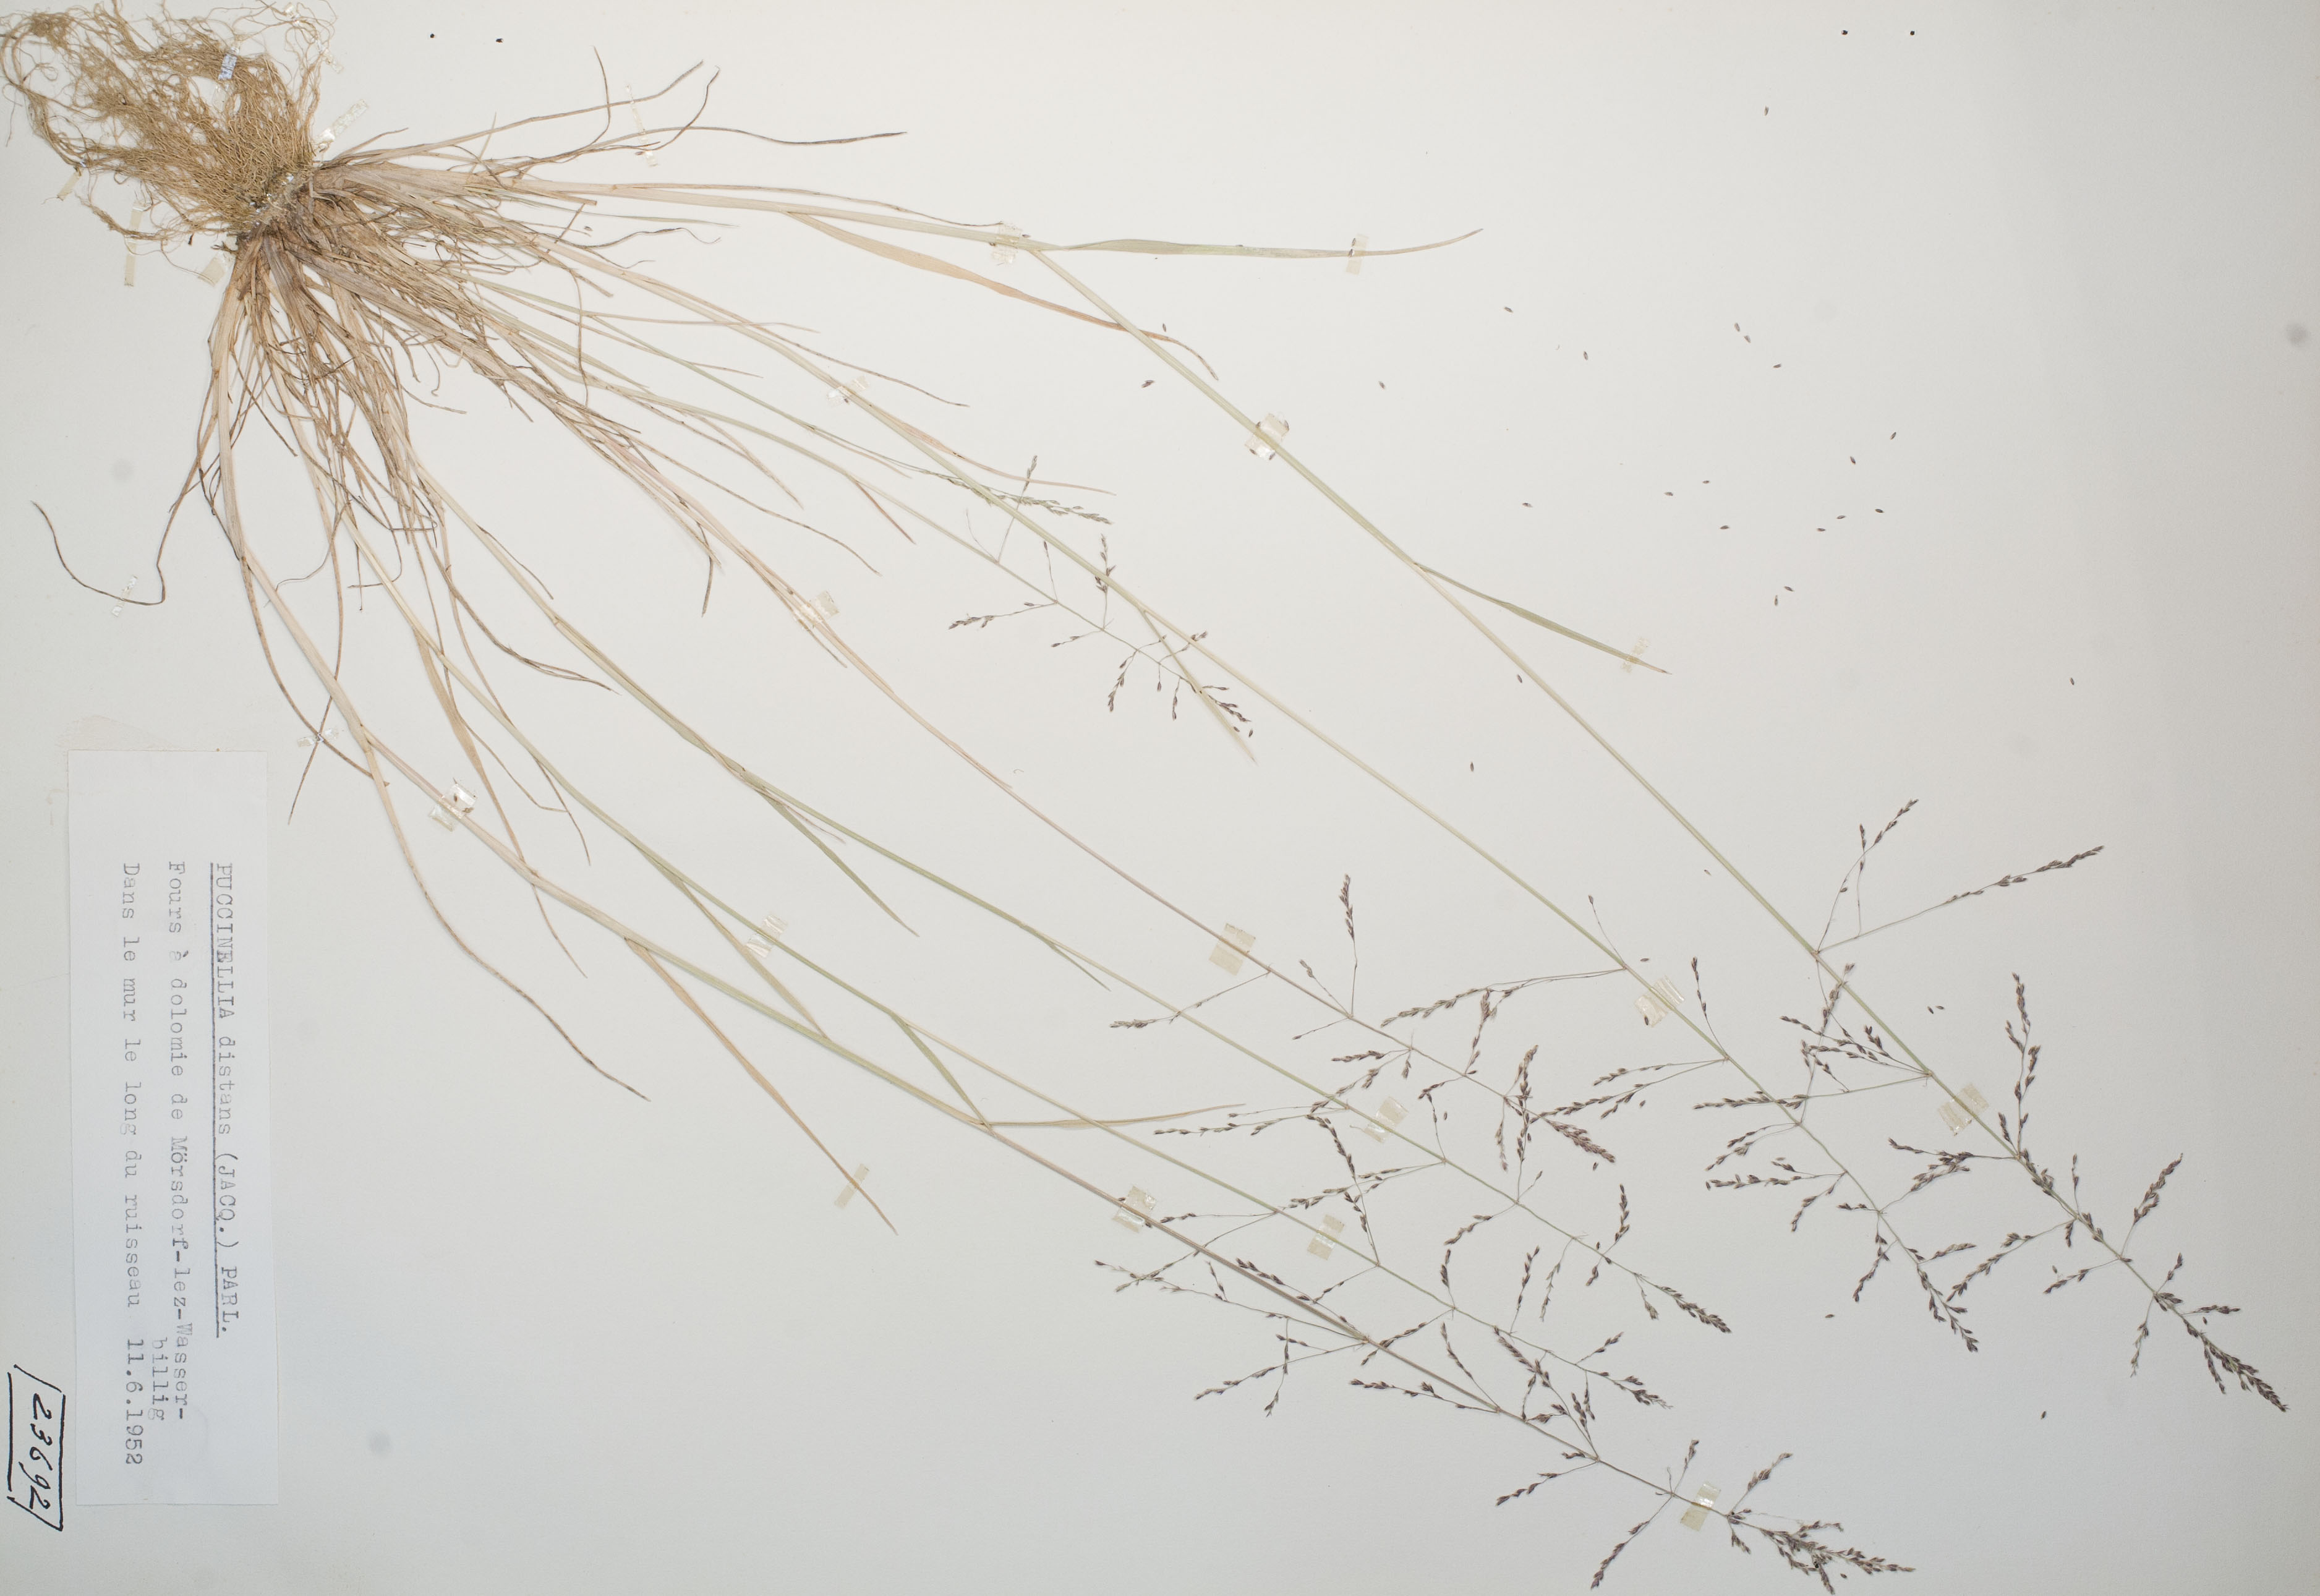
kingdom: Plantae
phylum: Tracheophyta
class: Liliopsida
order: Poales
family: Poaceae
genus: Puccinellia
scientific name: Puccinellia distans
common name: Weeping alkaligrass
